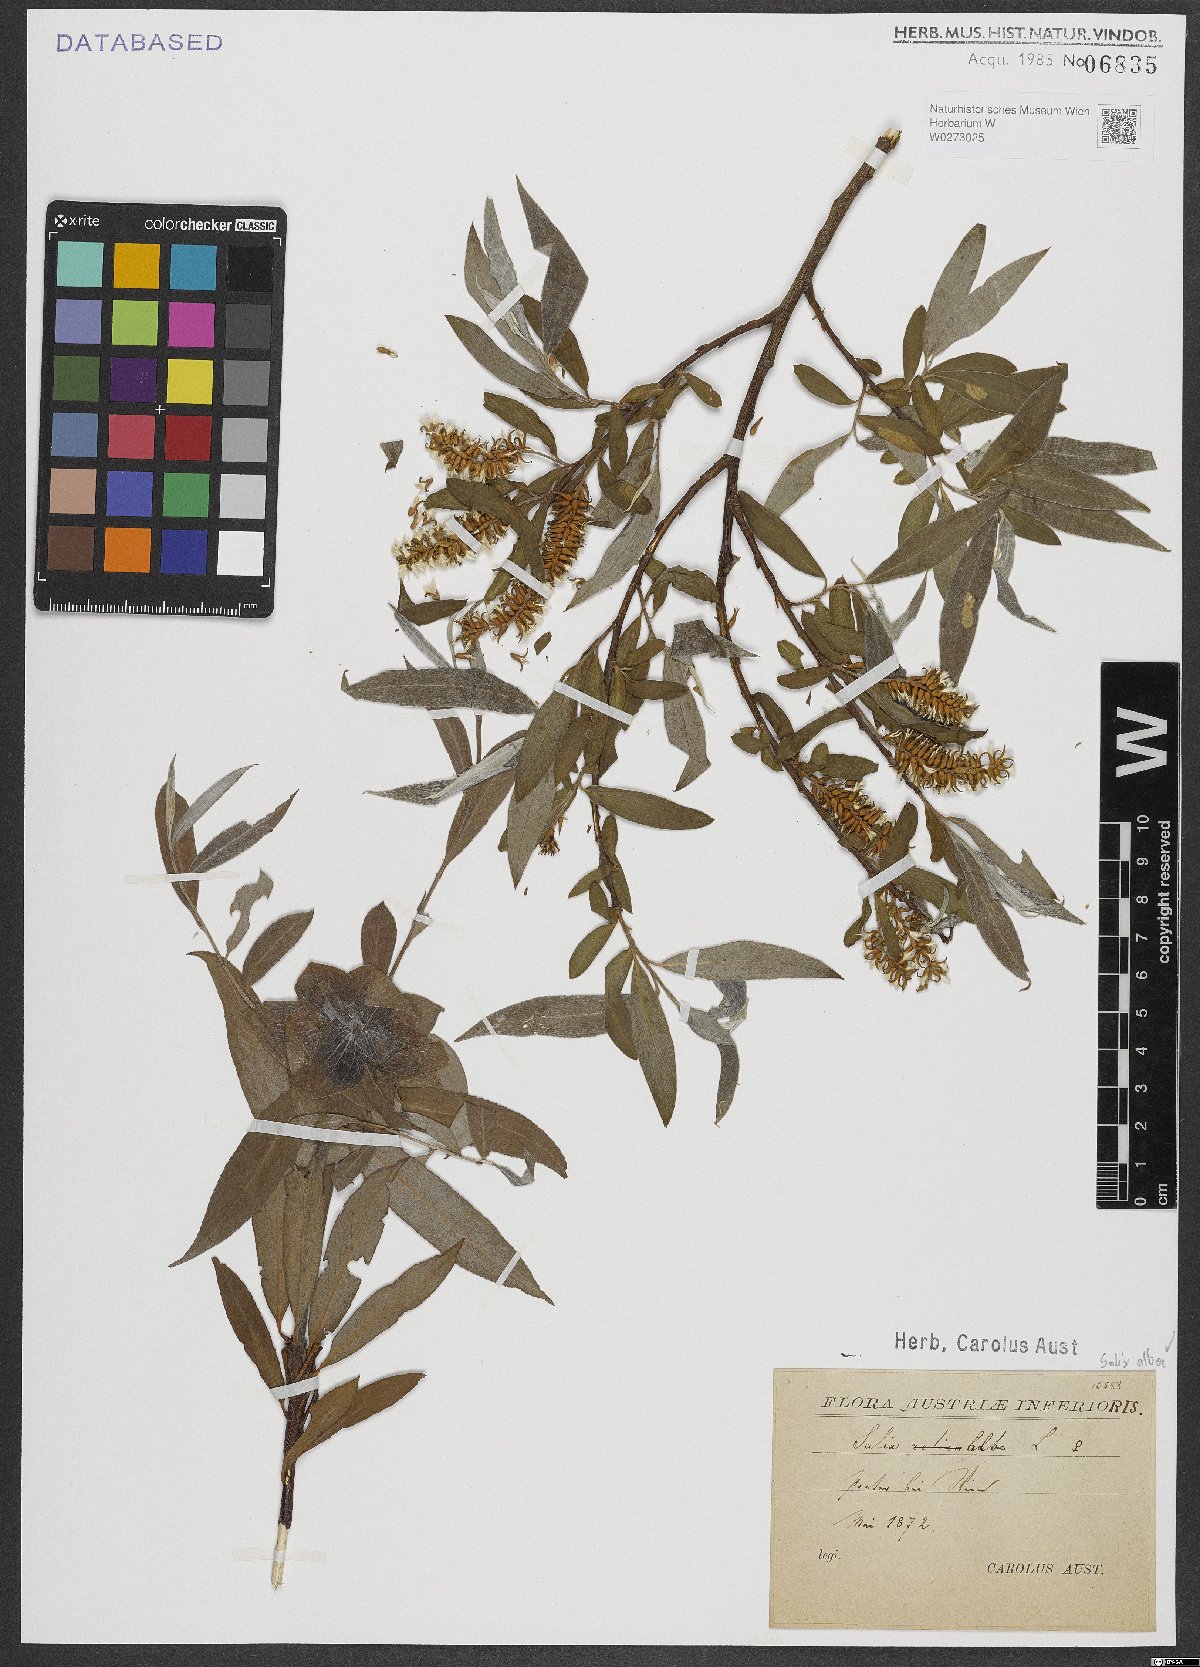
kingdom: Plantae
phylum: Tracheophyta
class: Magnoliopsida
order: Malpighiales
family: Salicaceae
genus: Salix
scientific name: Salix alba
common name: White willow
